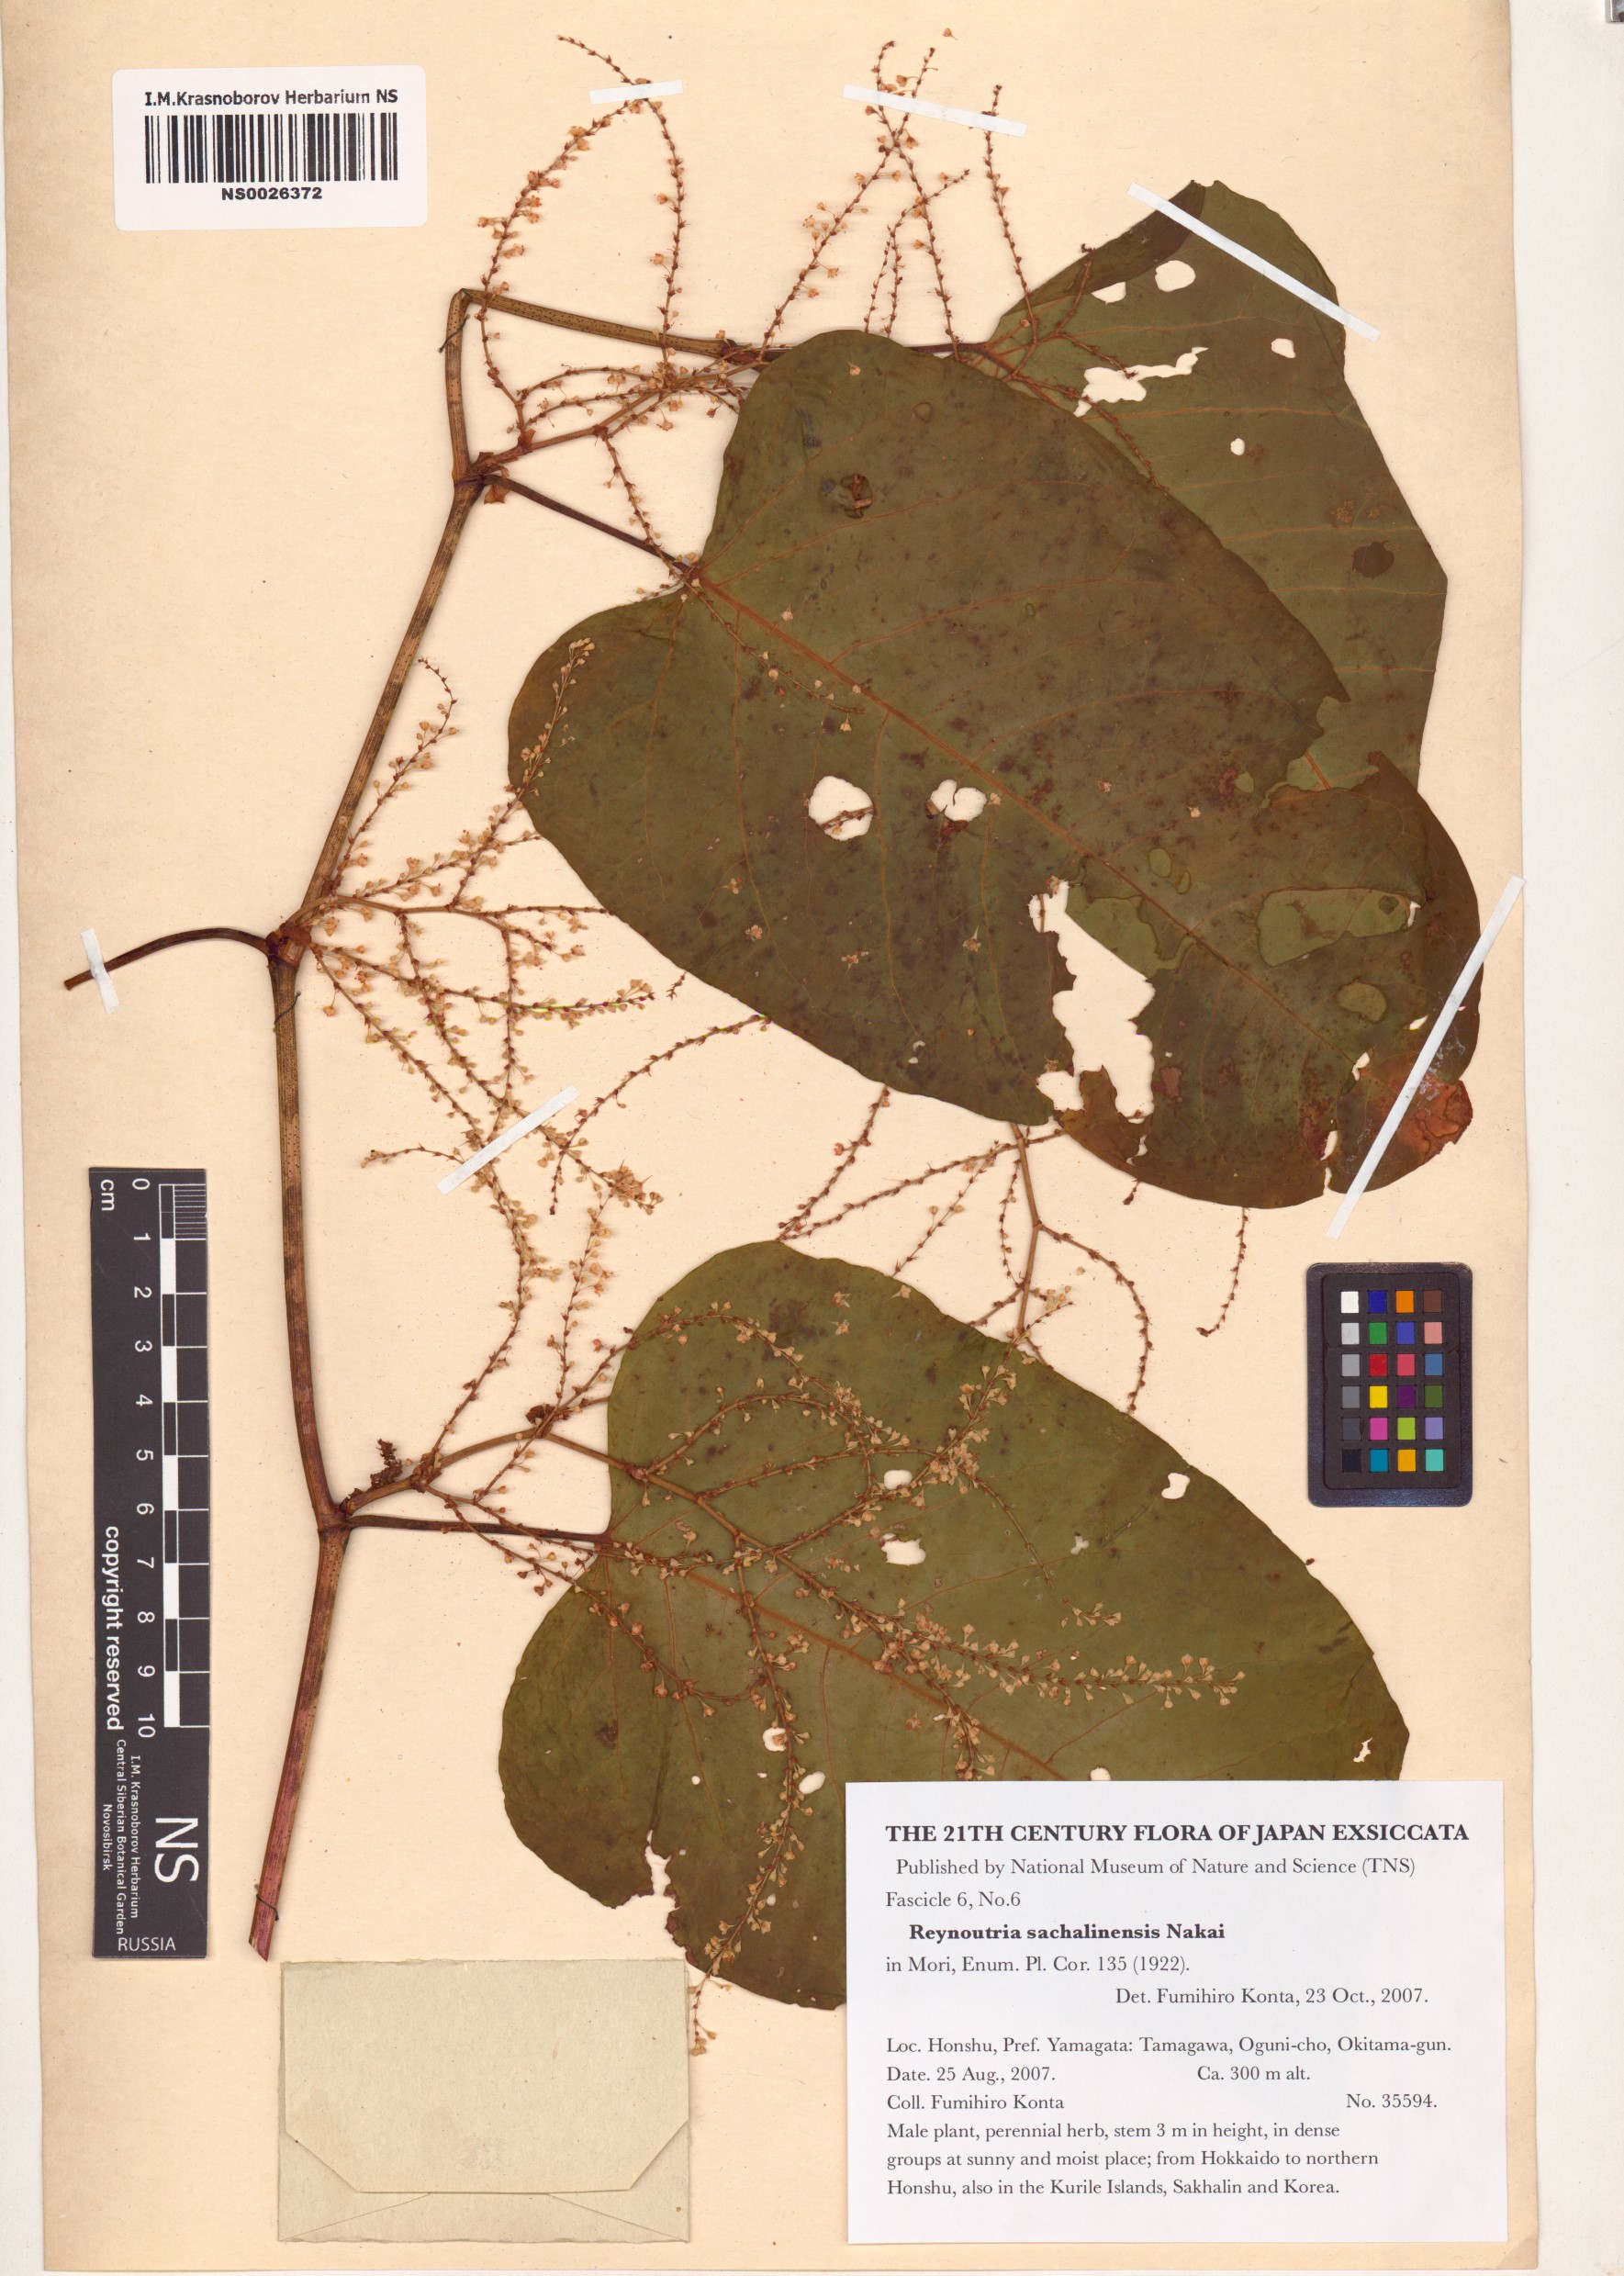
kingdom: Plantae
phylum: Tracheophyta
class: Magnoliopsida
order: Caryophyllales
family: Polygonaceae
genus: Reynoutria
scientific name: Reynoutria sachalinensis
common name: Giant knotweed
